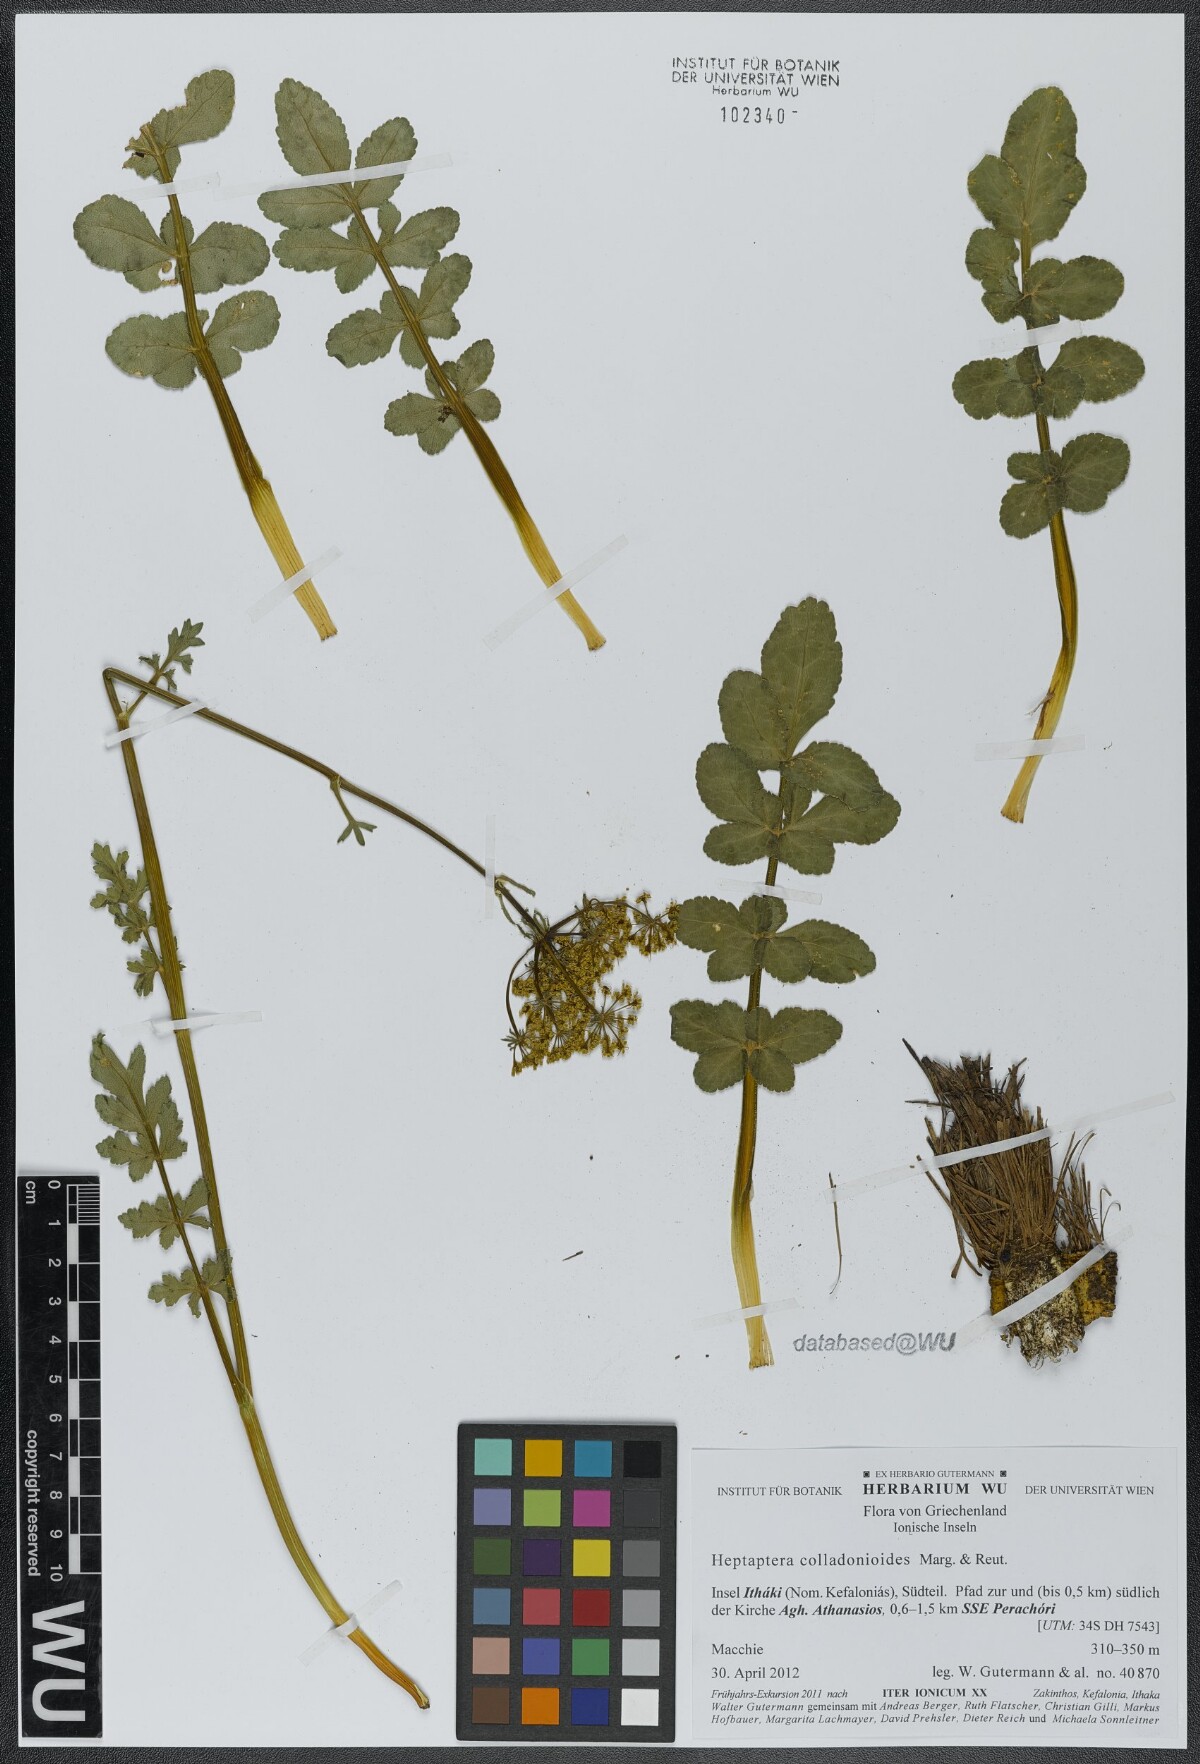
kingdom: Plantae
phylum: Tracheophyta
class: Magnoliopsida
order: Apiales
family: Apiaceae
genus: Heptaptera
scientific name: Heptaptera colladonioides
